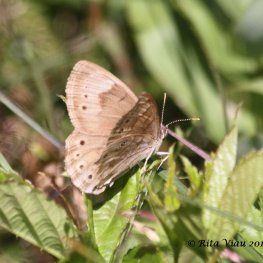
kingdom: Animalia
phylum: Arthropoda
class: Insecta
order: Lepidoptera
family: Nymphalidae
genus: Lethe
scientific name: Lethe eurydice
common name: Eyed Brown
